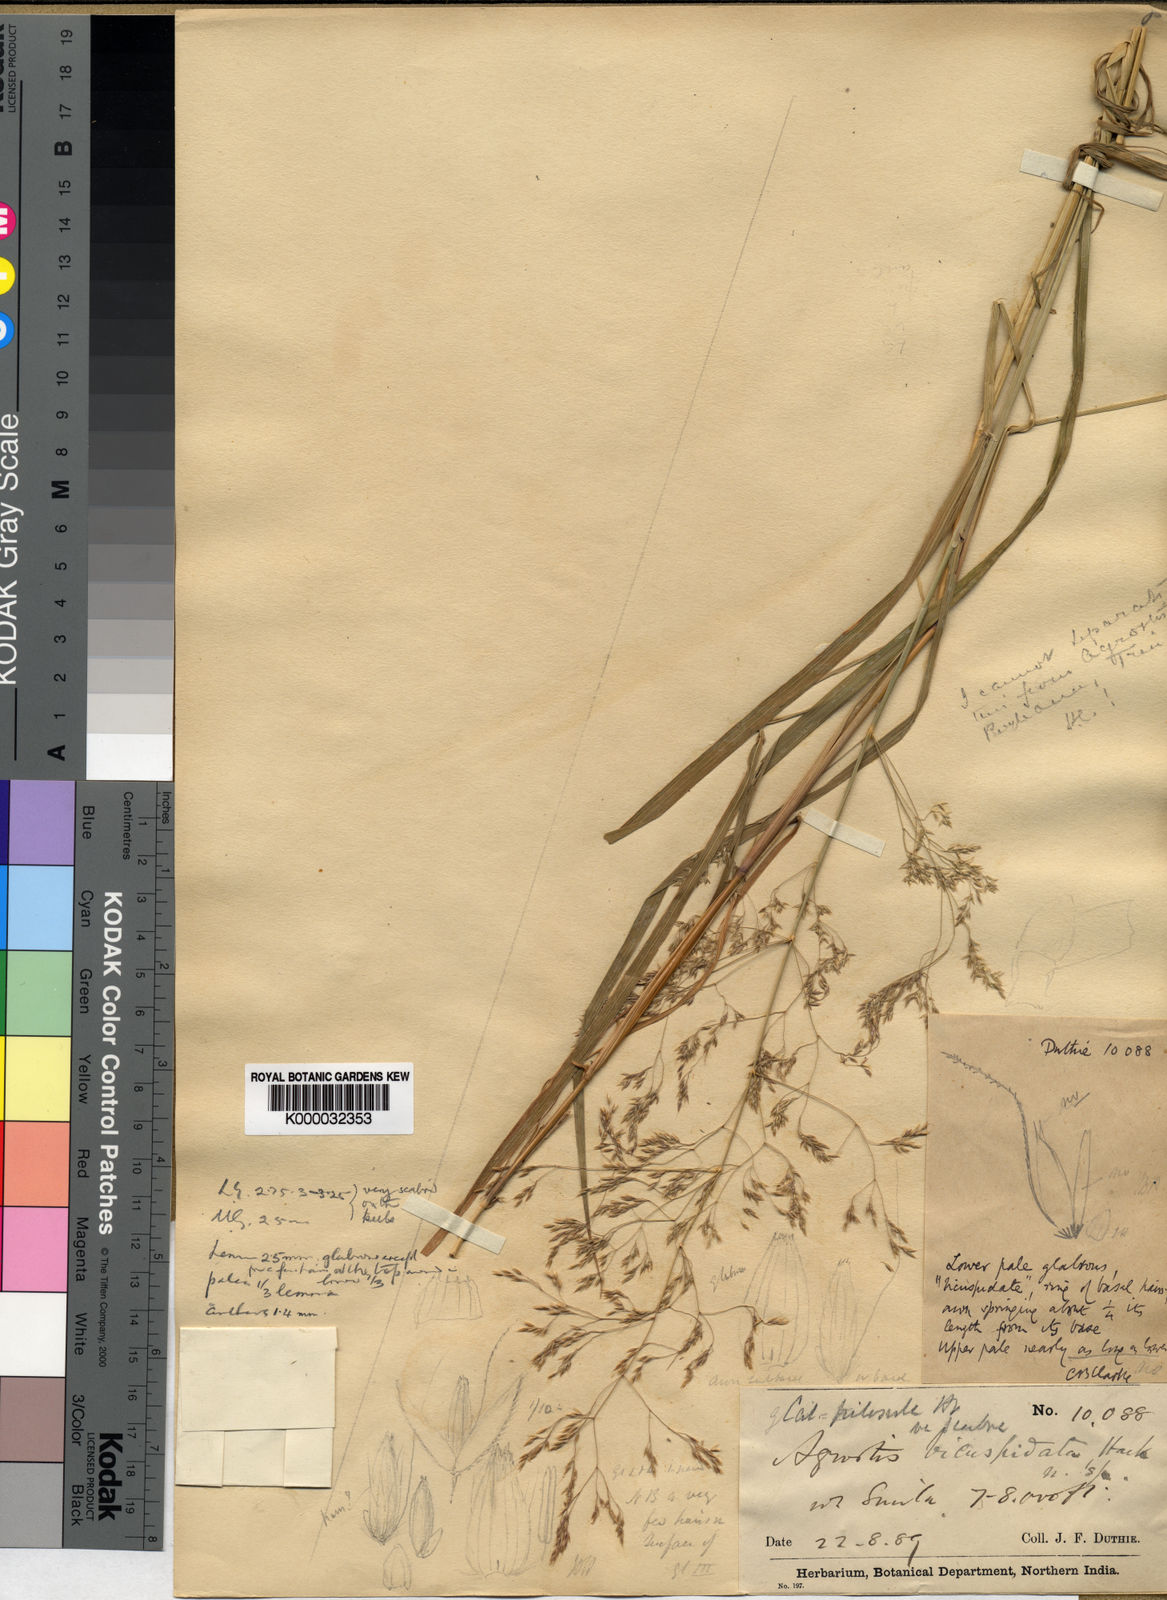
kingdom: Plantae
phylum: Tracheophyta
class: Liliopsida
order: Poales
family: Poaceae
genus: Agrostis
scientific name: Agrostis pilosula
